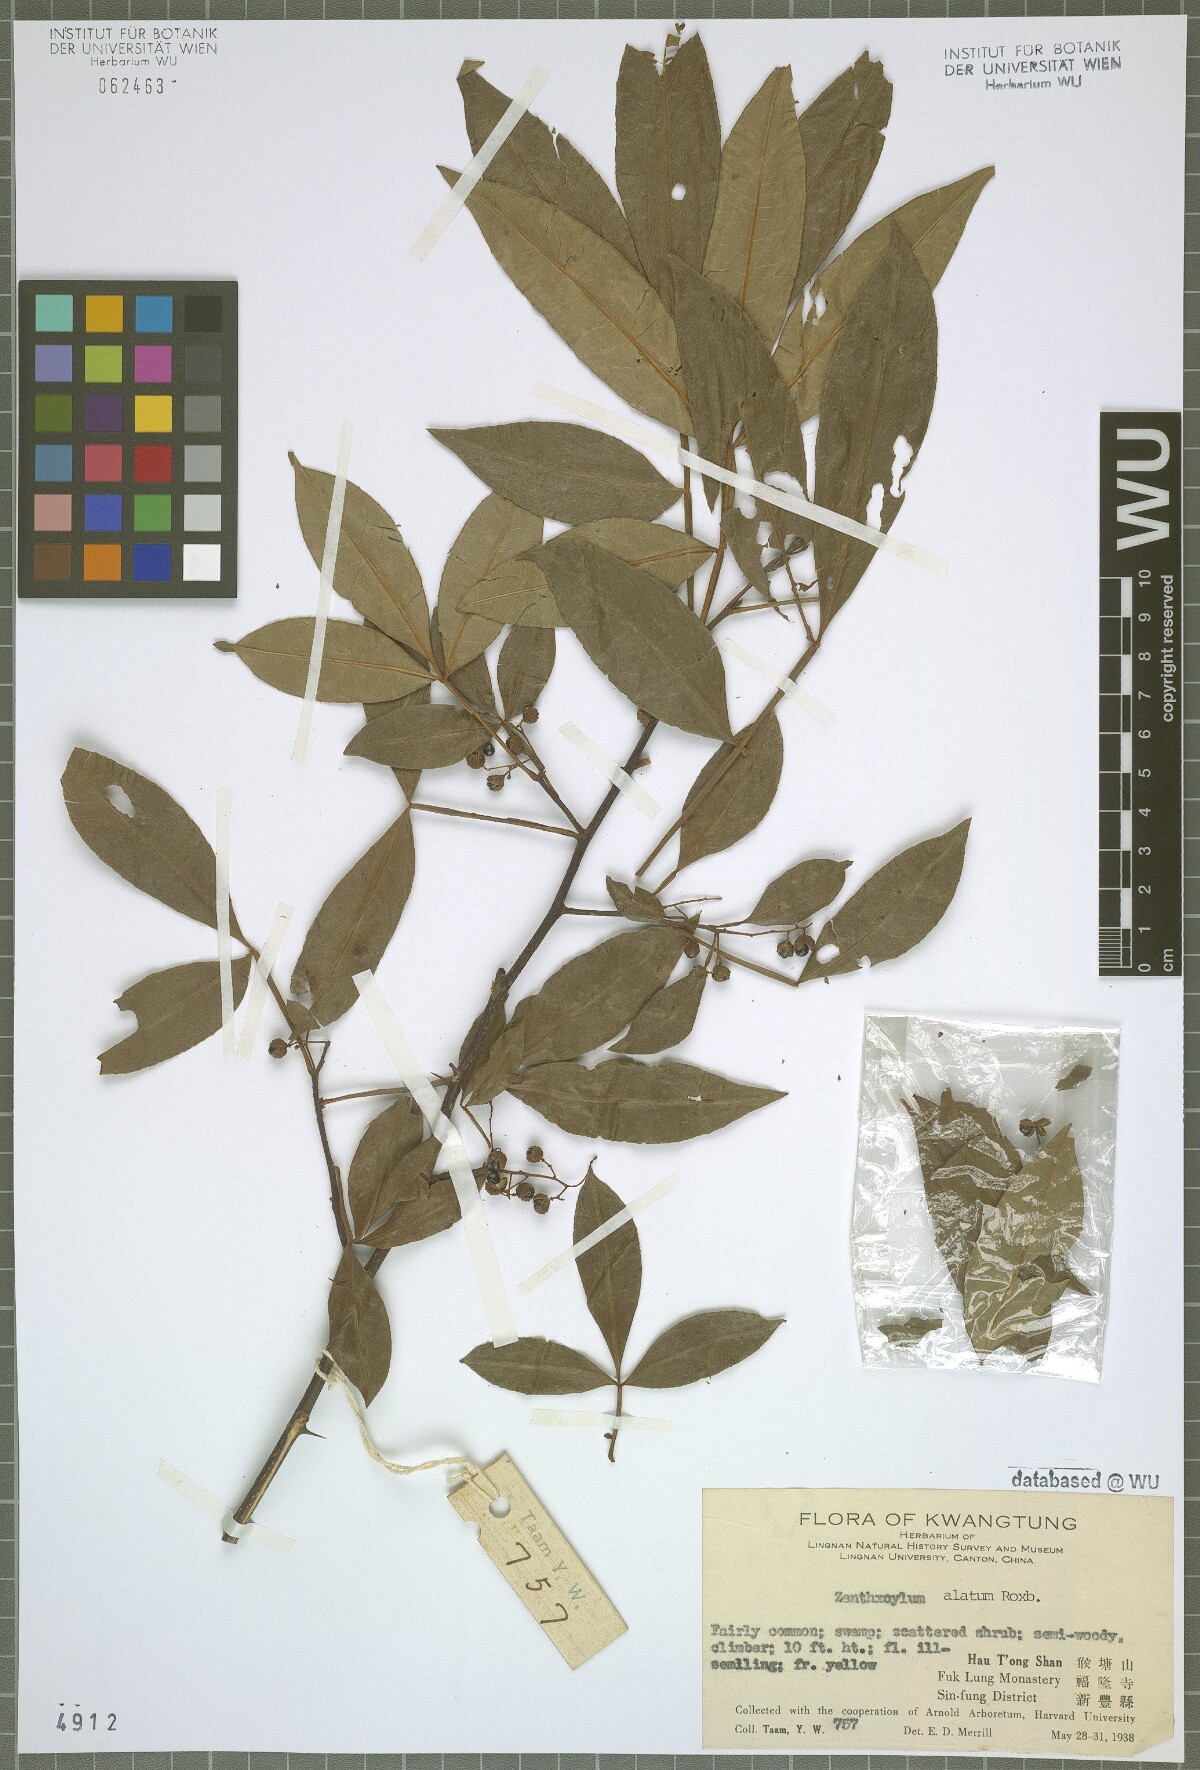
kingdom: Plantae
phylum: Tracheophyta
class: Magnoliopsida
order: Sapindales
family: Rutaceae
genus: Zanthoxylum
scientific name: Zanthoxylum armatum
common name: Winged prickly-ash
